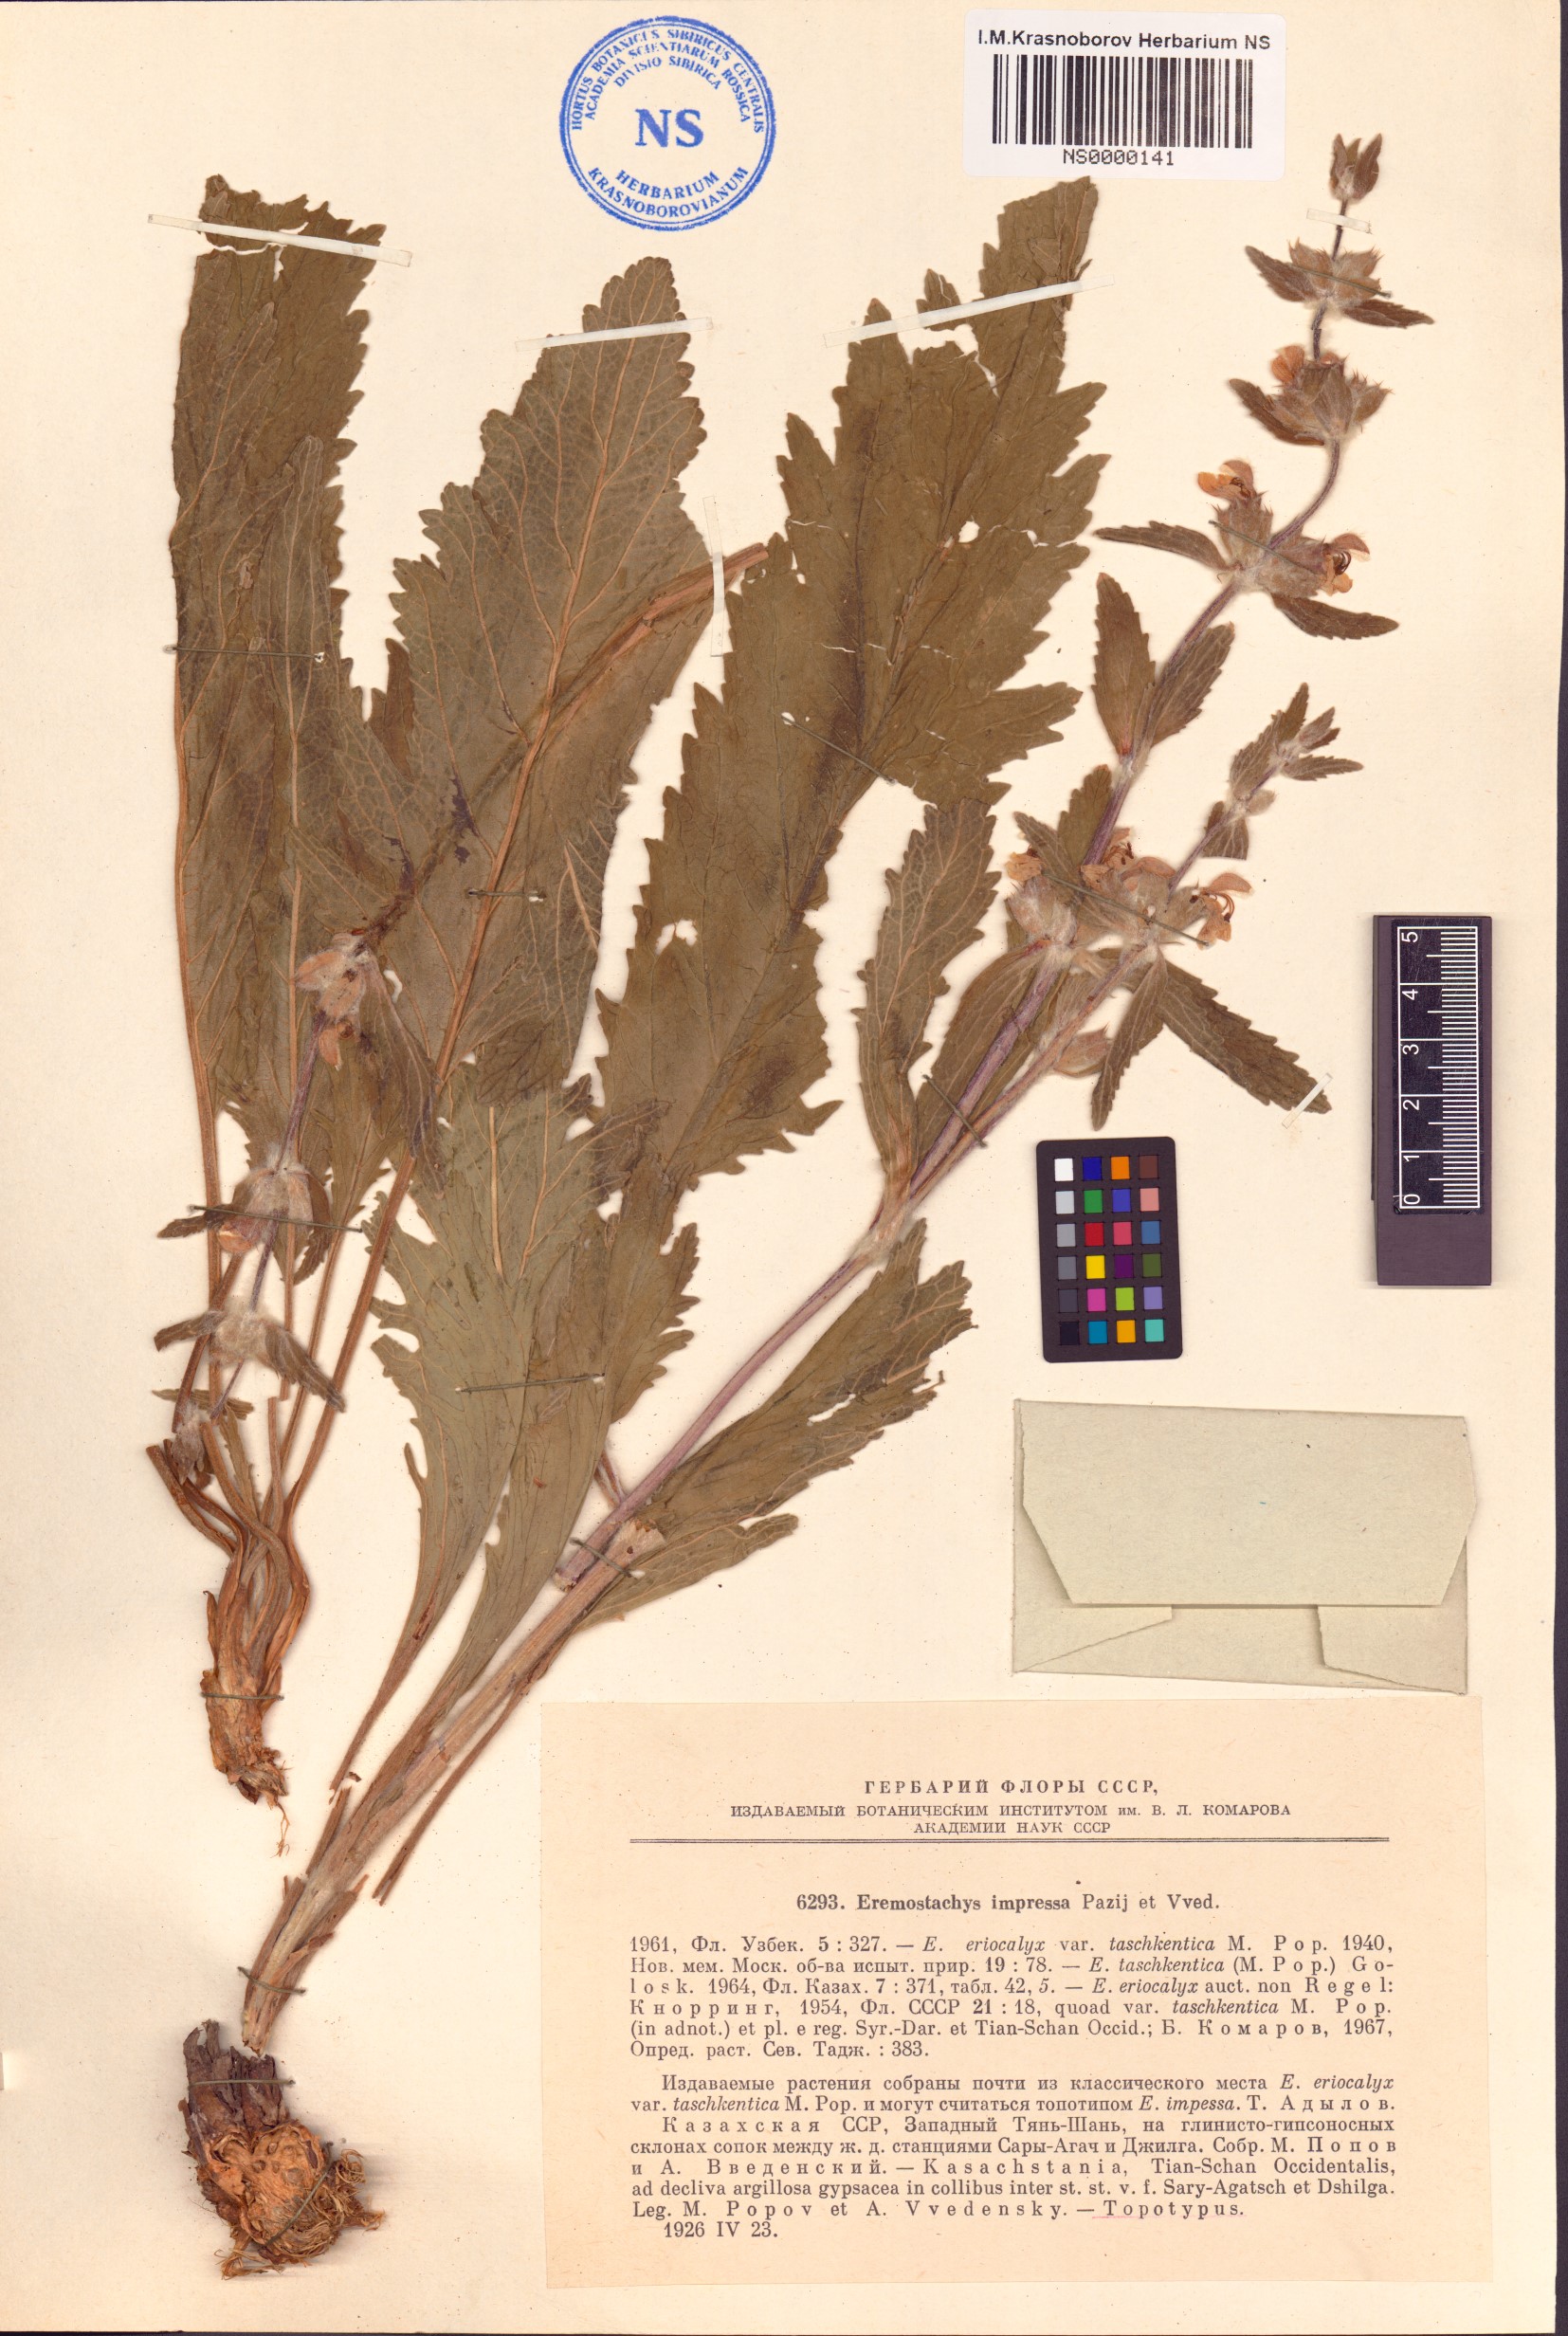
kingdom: Plantae
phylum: Tracheophyta
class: Magnoliopsida
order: Lamiales
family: Lamiaceae
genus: Phlomoides
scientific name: Phlomoides eriocalyx
